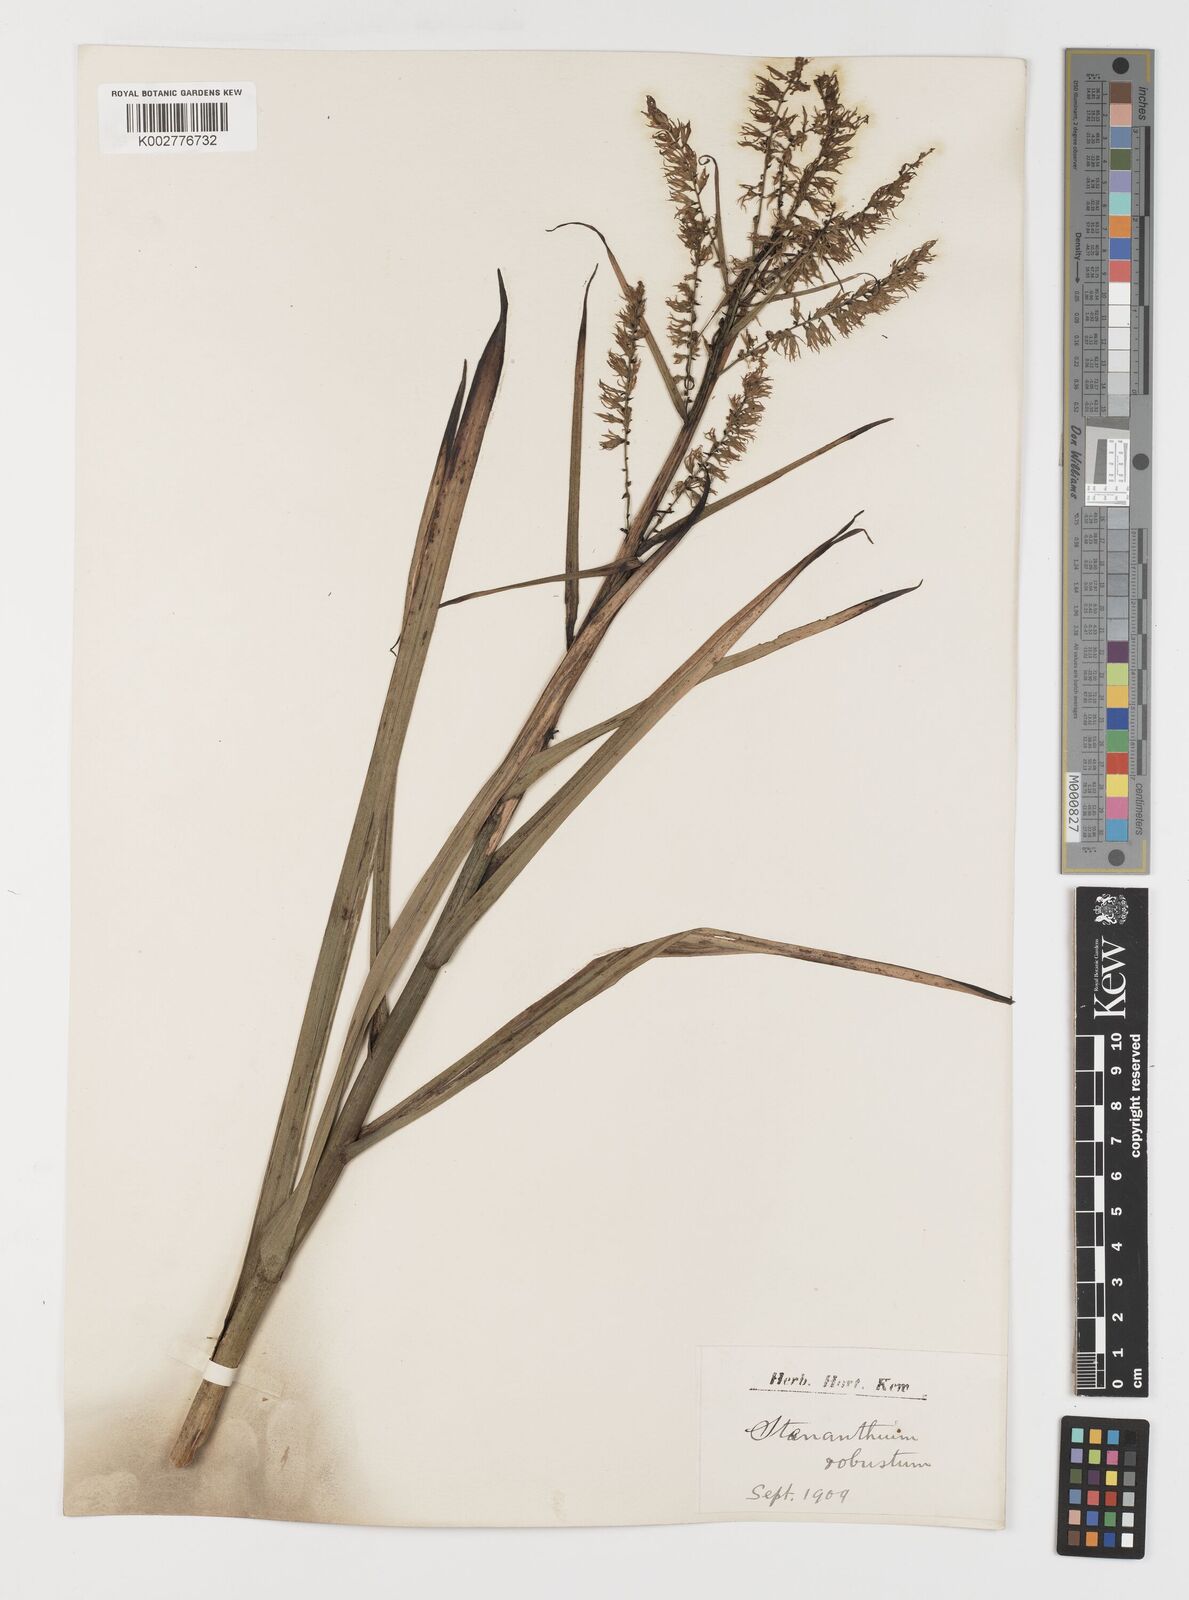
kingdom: Plantae
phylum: Tracheophyta
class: Liliopsida
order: Liliales
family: Melanthiaceae
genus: Stenanthium
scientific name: Stenanthium gramineum
